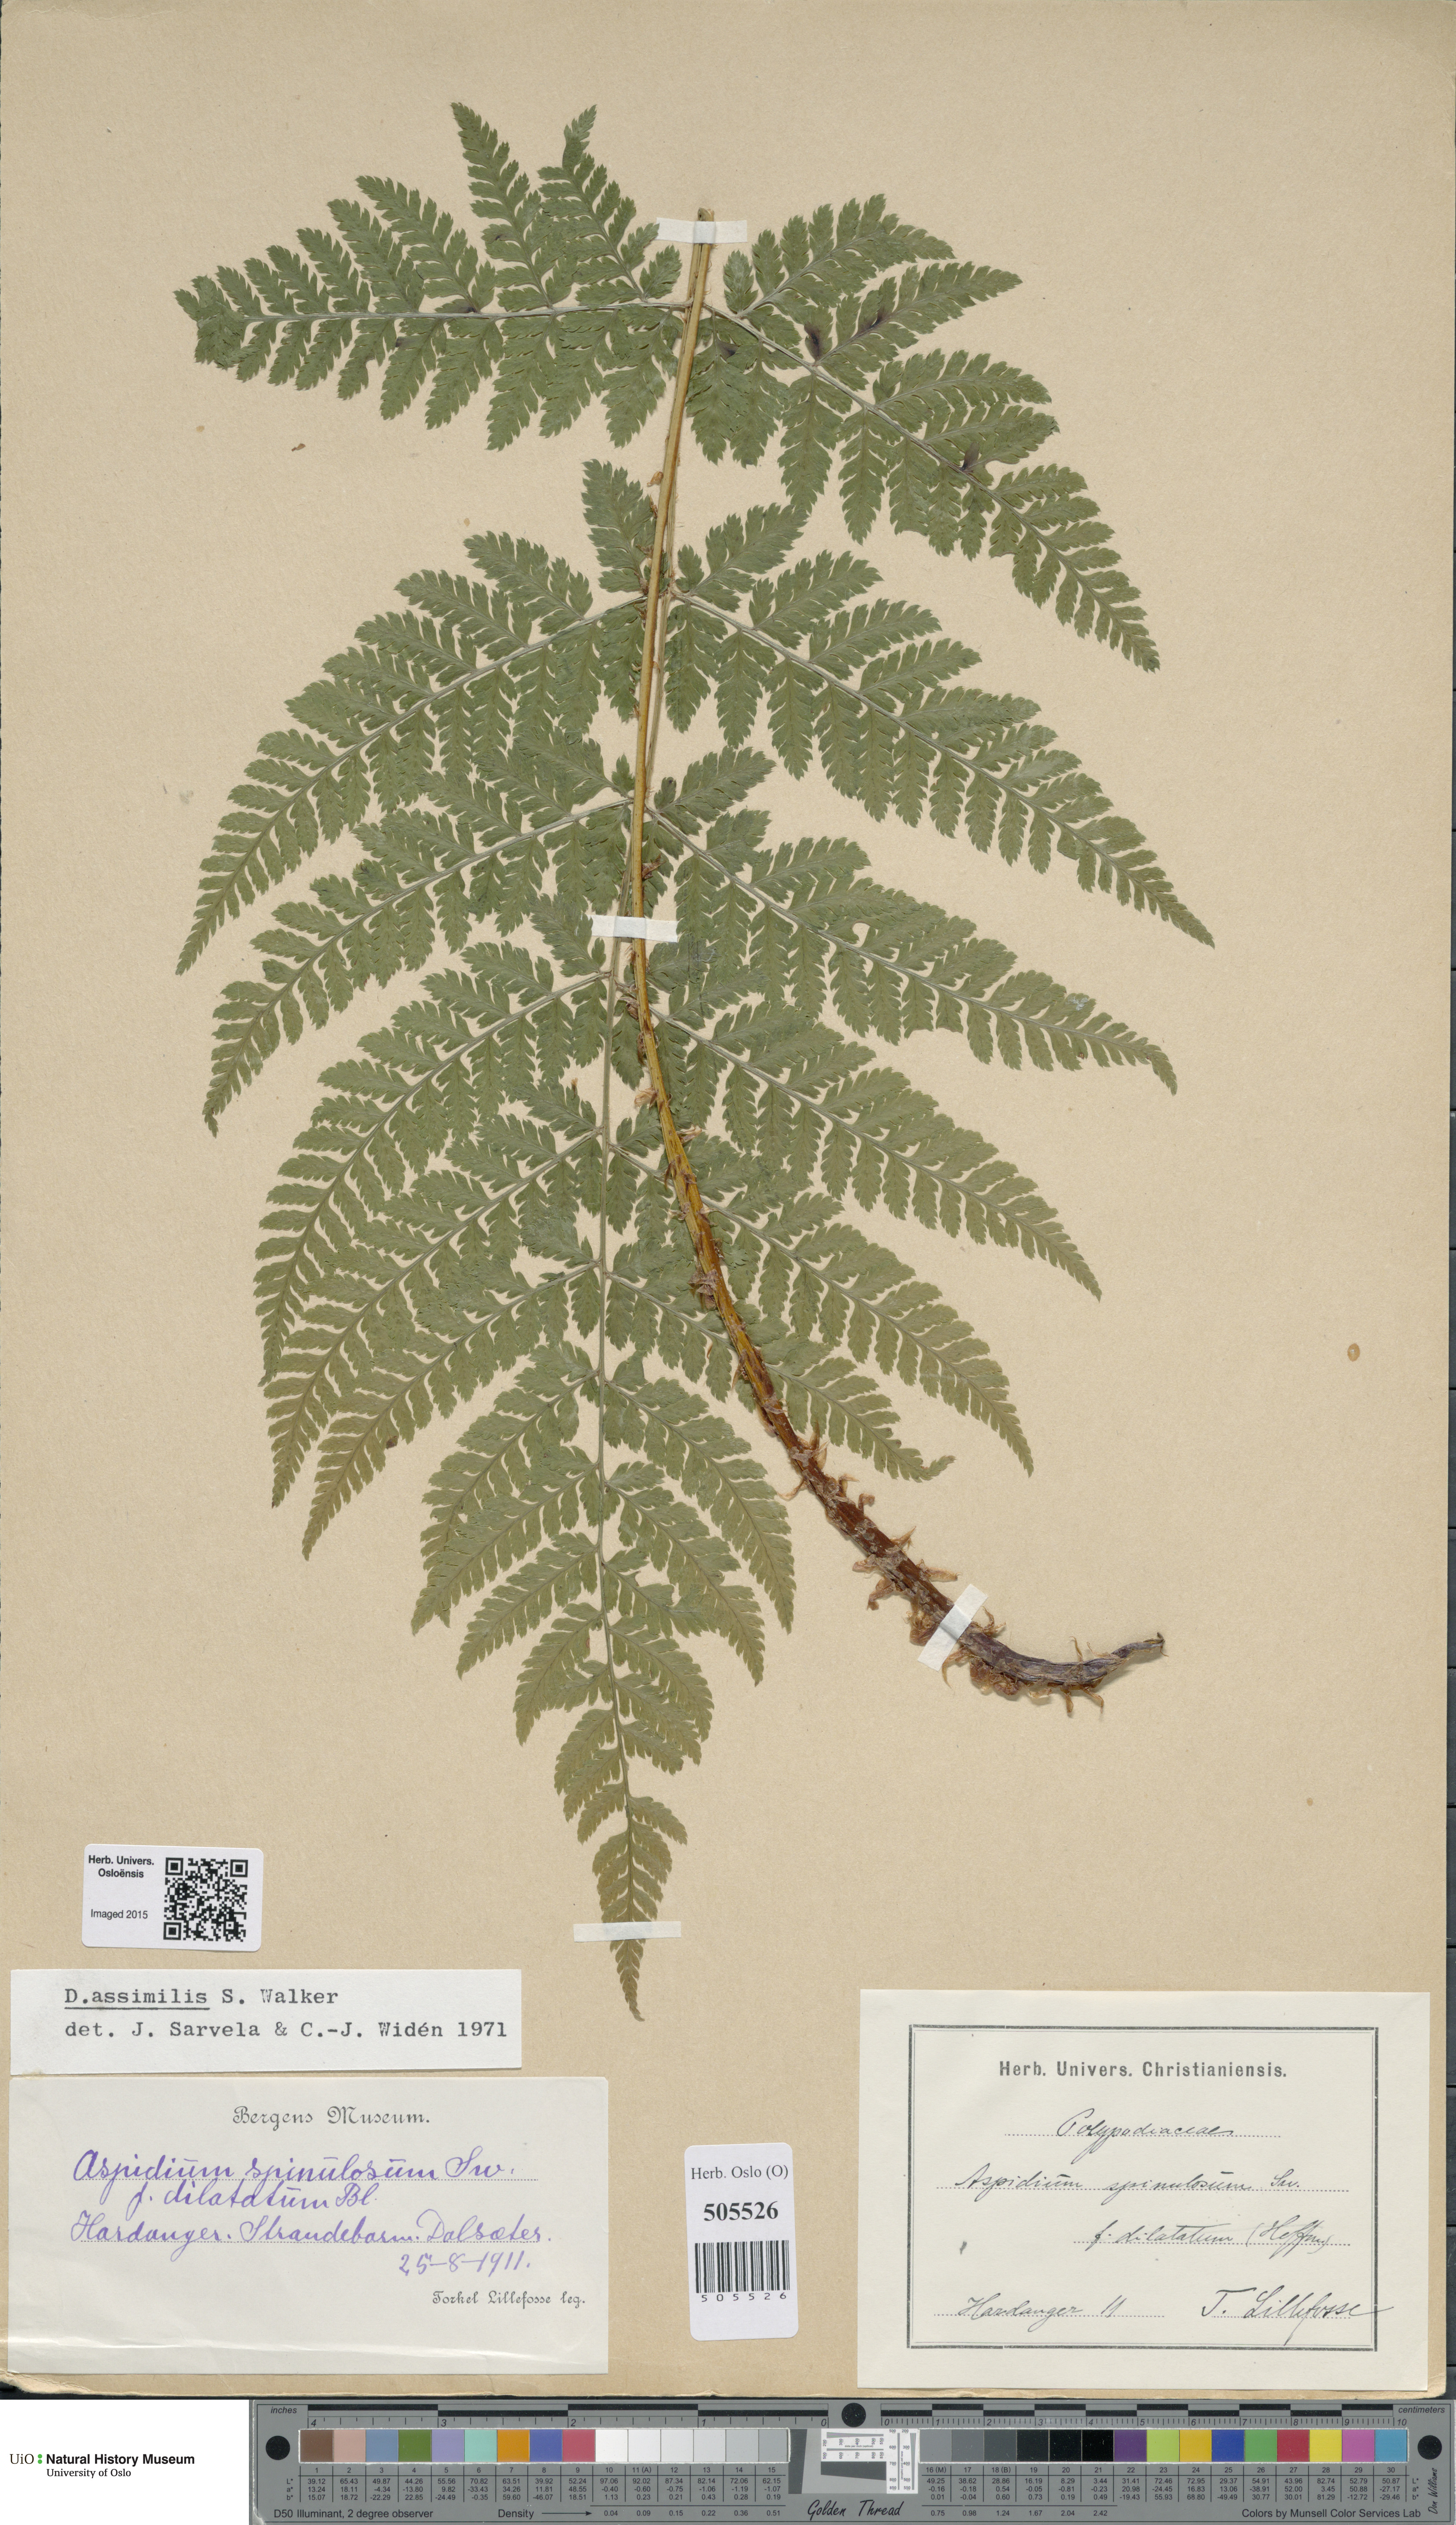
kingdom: Plantae
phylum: Tracheophyta
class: Polypodiopsida
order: Polypodiales
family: Dryopteridaceae
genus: Dryopteris
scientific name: Dryopteris expansa
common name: Northern buckler fern
